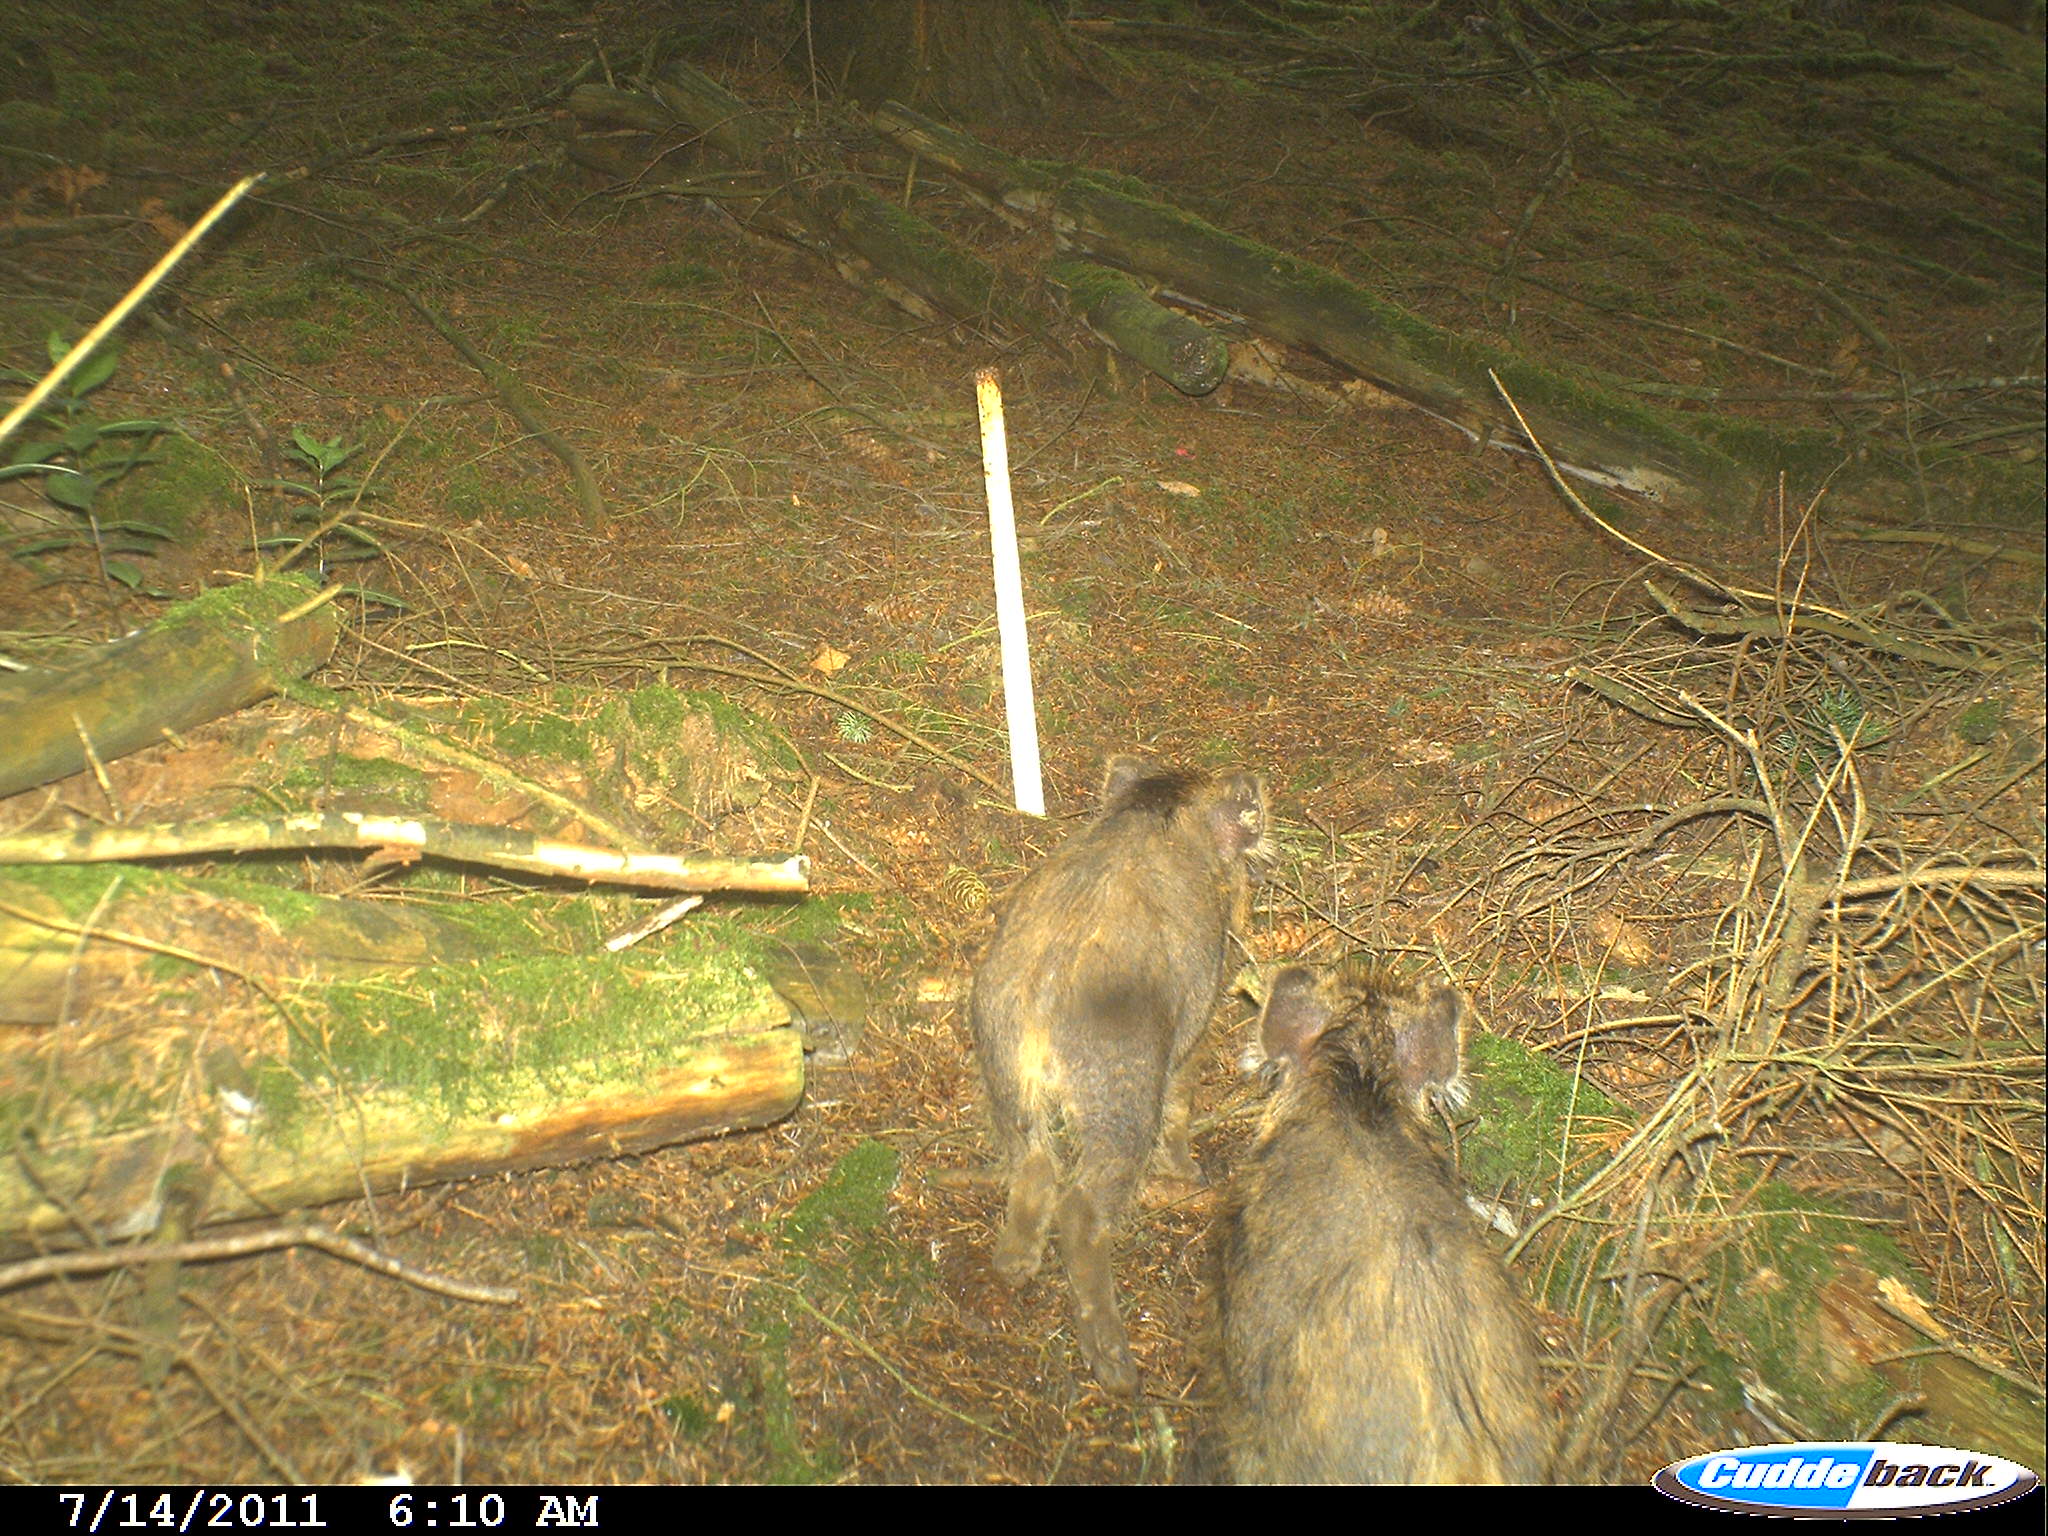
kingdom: Animalia
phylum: Chordata
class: Mammalia
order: Artiodactyla
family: Suidae
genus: Sus
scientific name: Sus scrofa
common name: Wild boar
